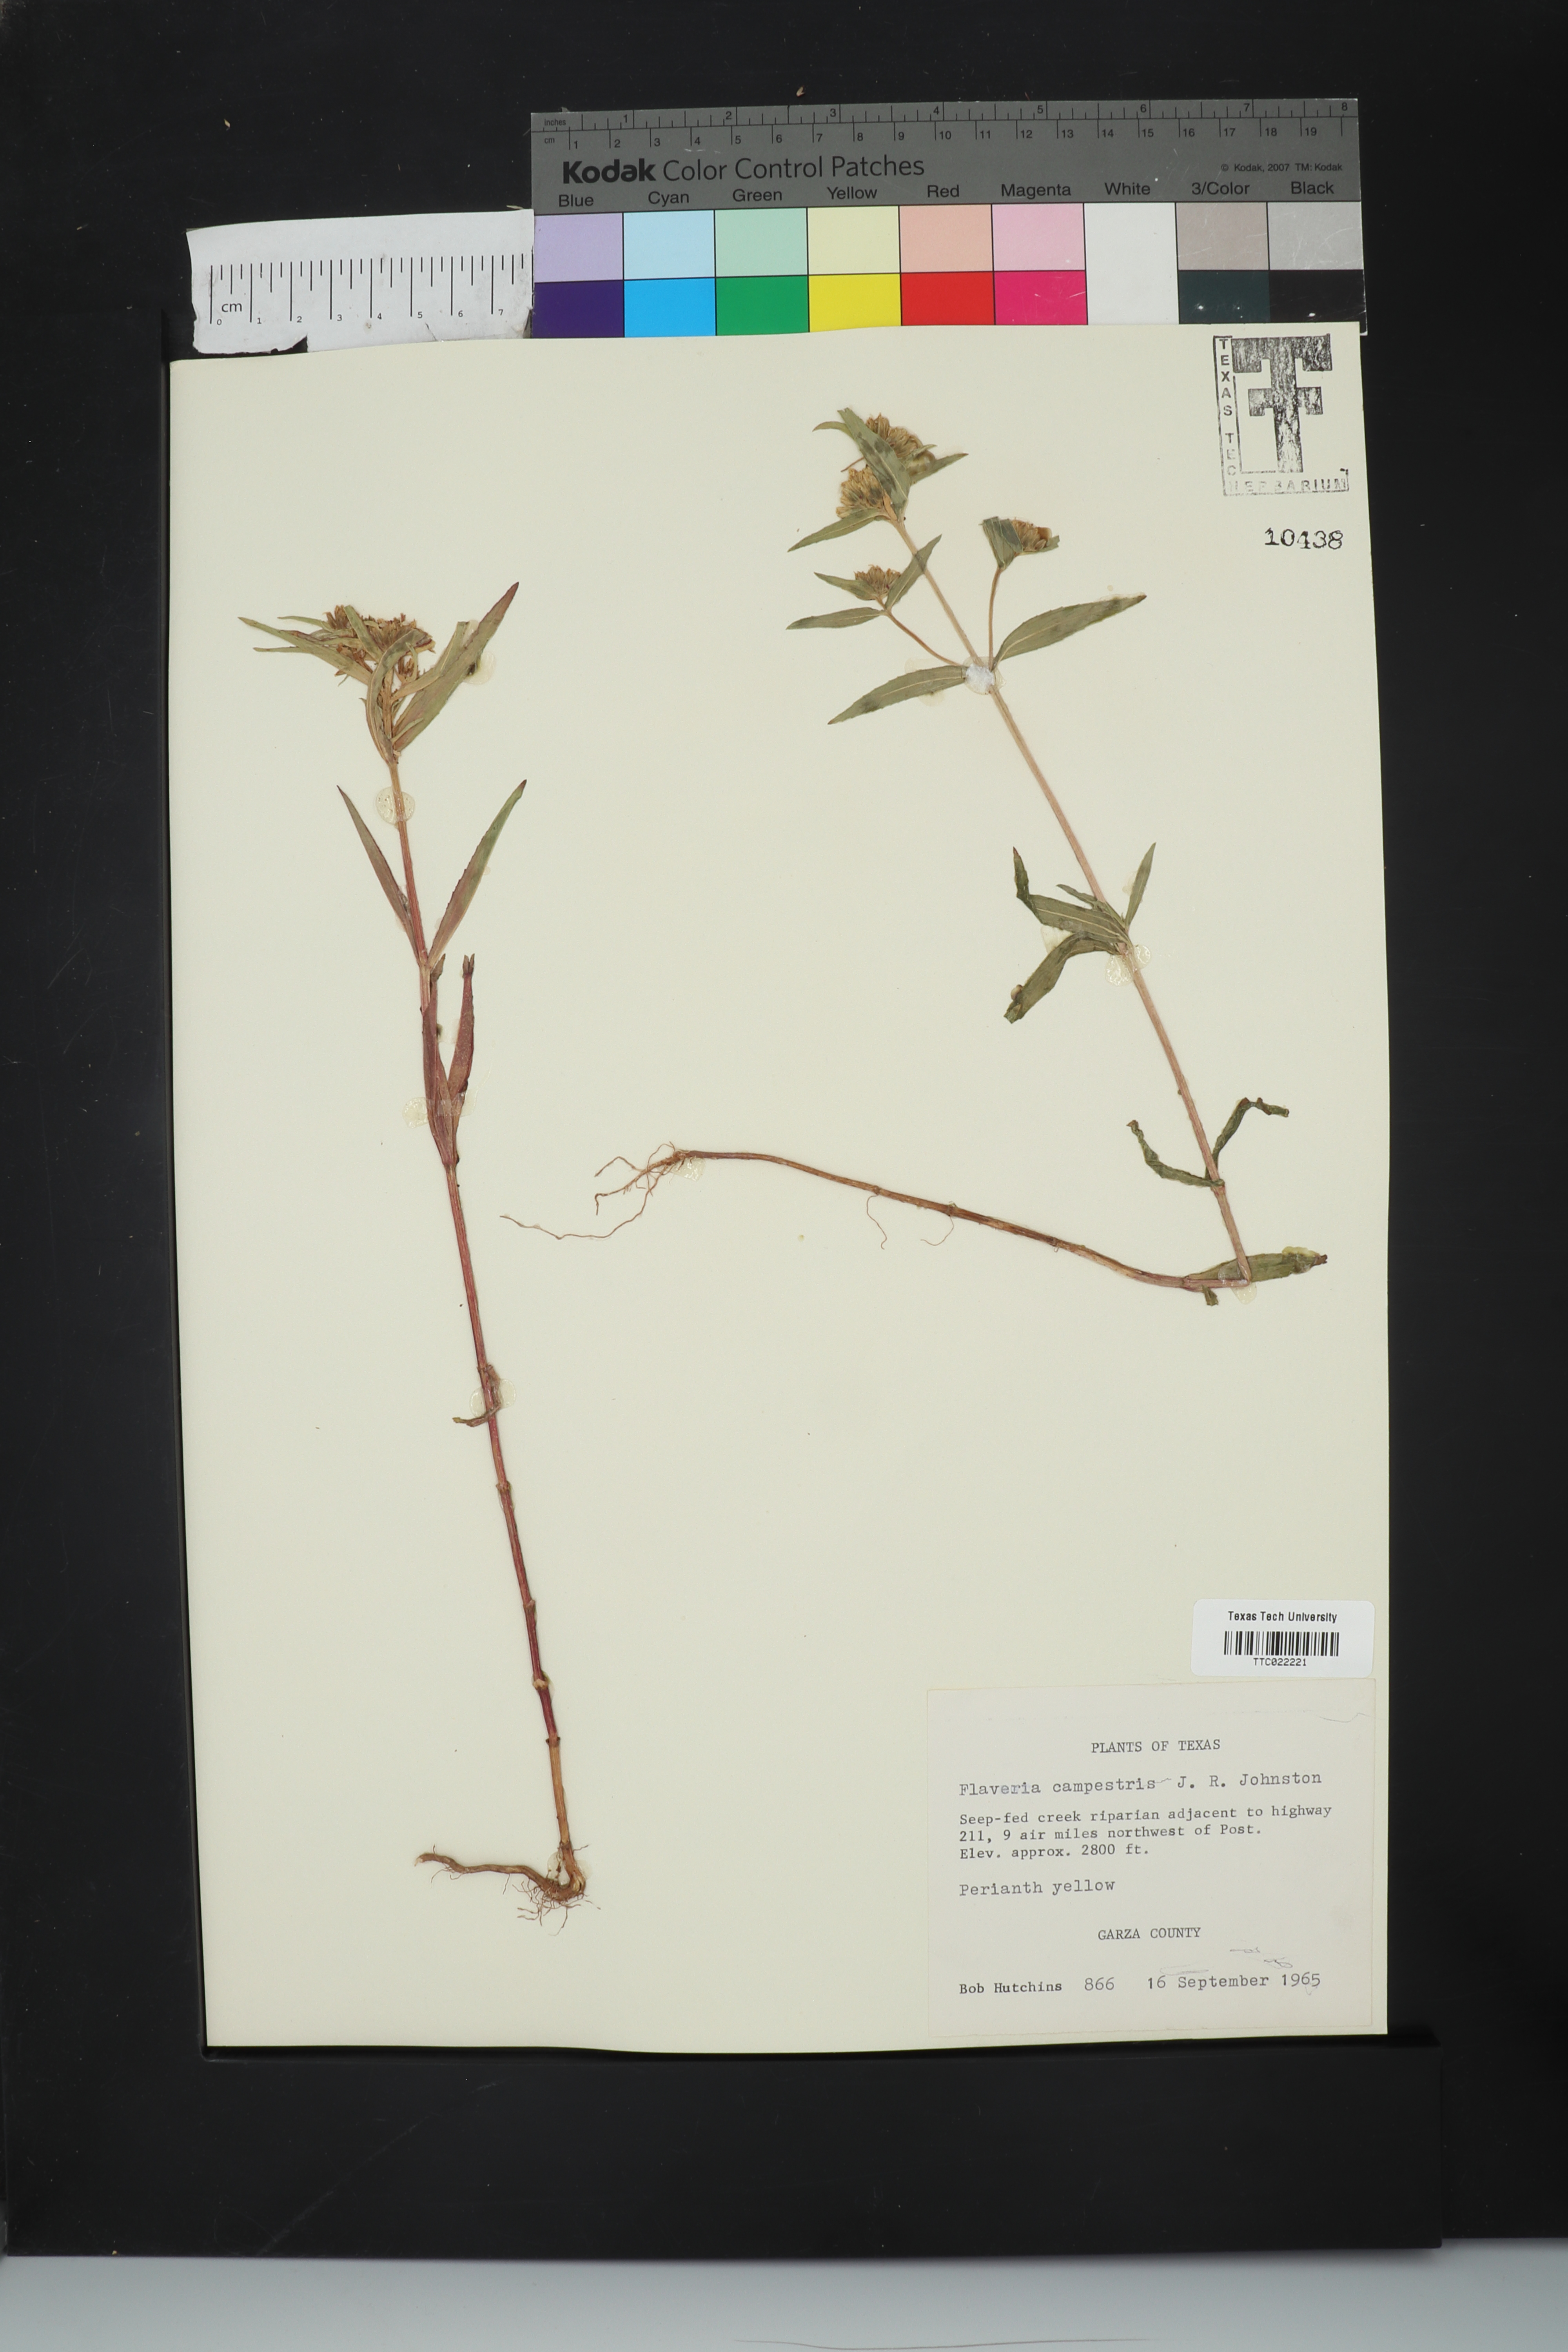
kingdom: Plantae
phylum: Tracheophyta
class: Magnoliopsida
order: Asterales
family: Asteraceae
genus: Flaveria
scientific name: Flaveria campestris
